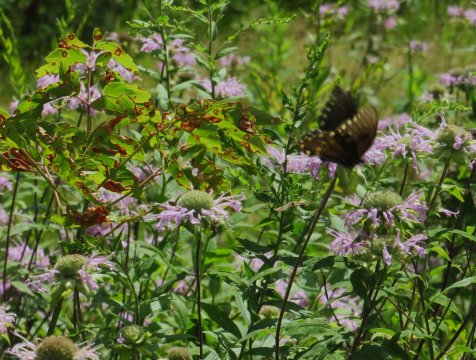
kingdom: Animalia
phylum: Arthropoda
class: Insecta
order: Lepidoptera
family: Papilionidae
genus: Pterourus
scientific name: Pterourus troilus
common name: Spicebush Swallowtail
